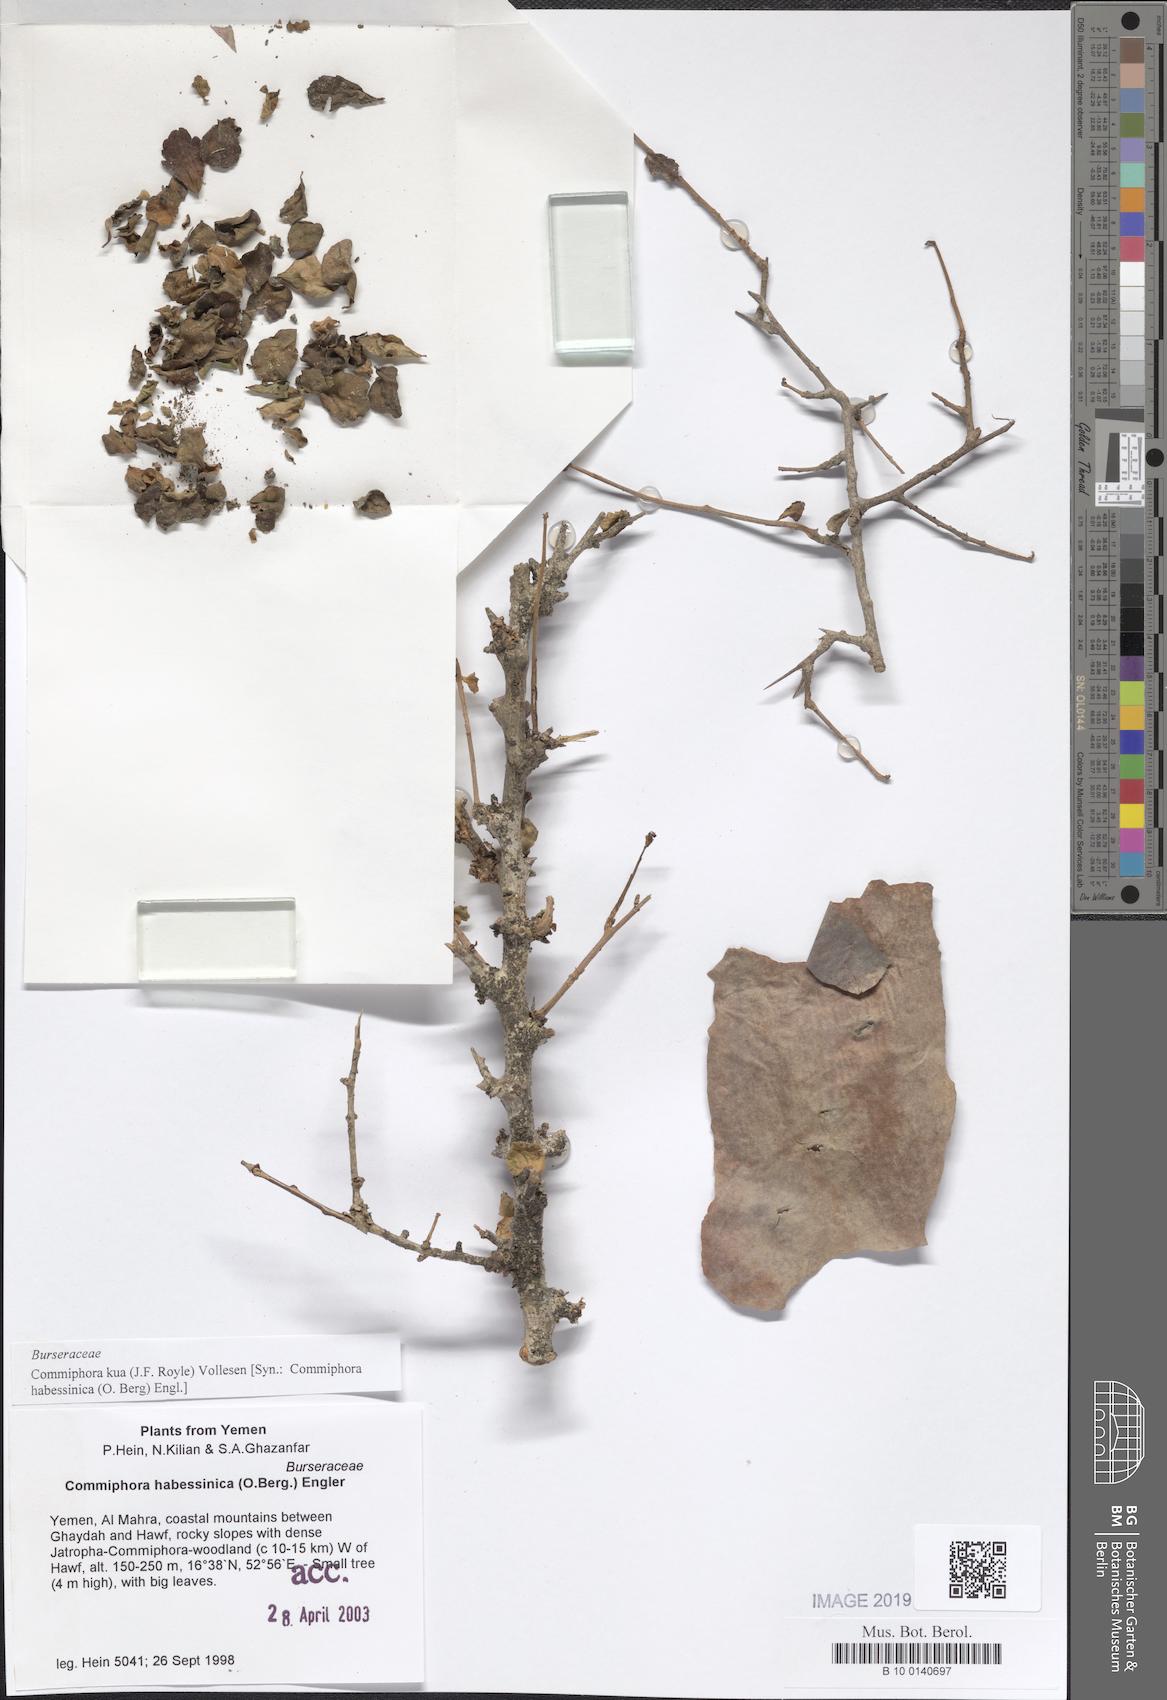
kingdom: Plantae
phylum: Tracheophyta
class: Magnoliopsida
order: Sapindales
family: Burseraceae
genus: Commiphora
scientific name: Commiphora kua
